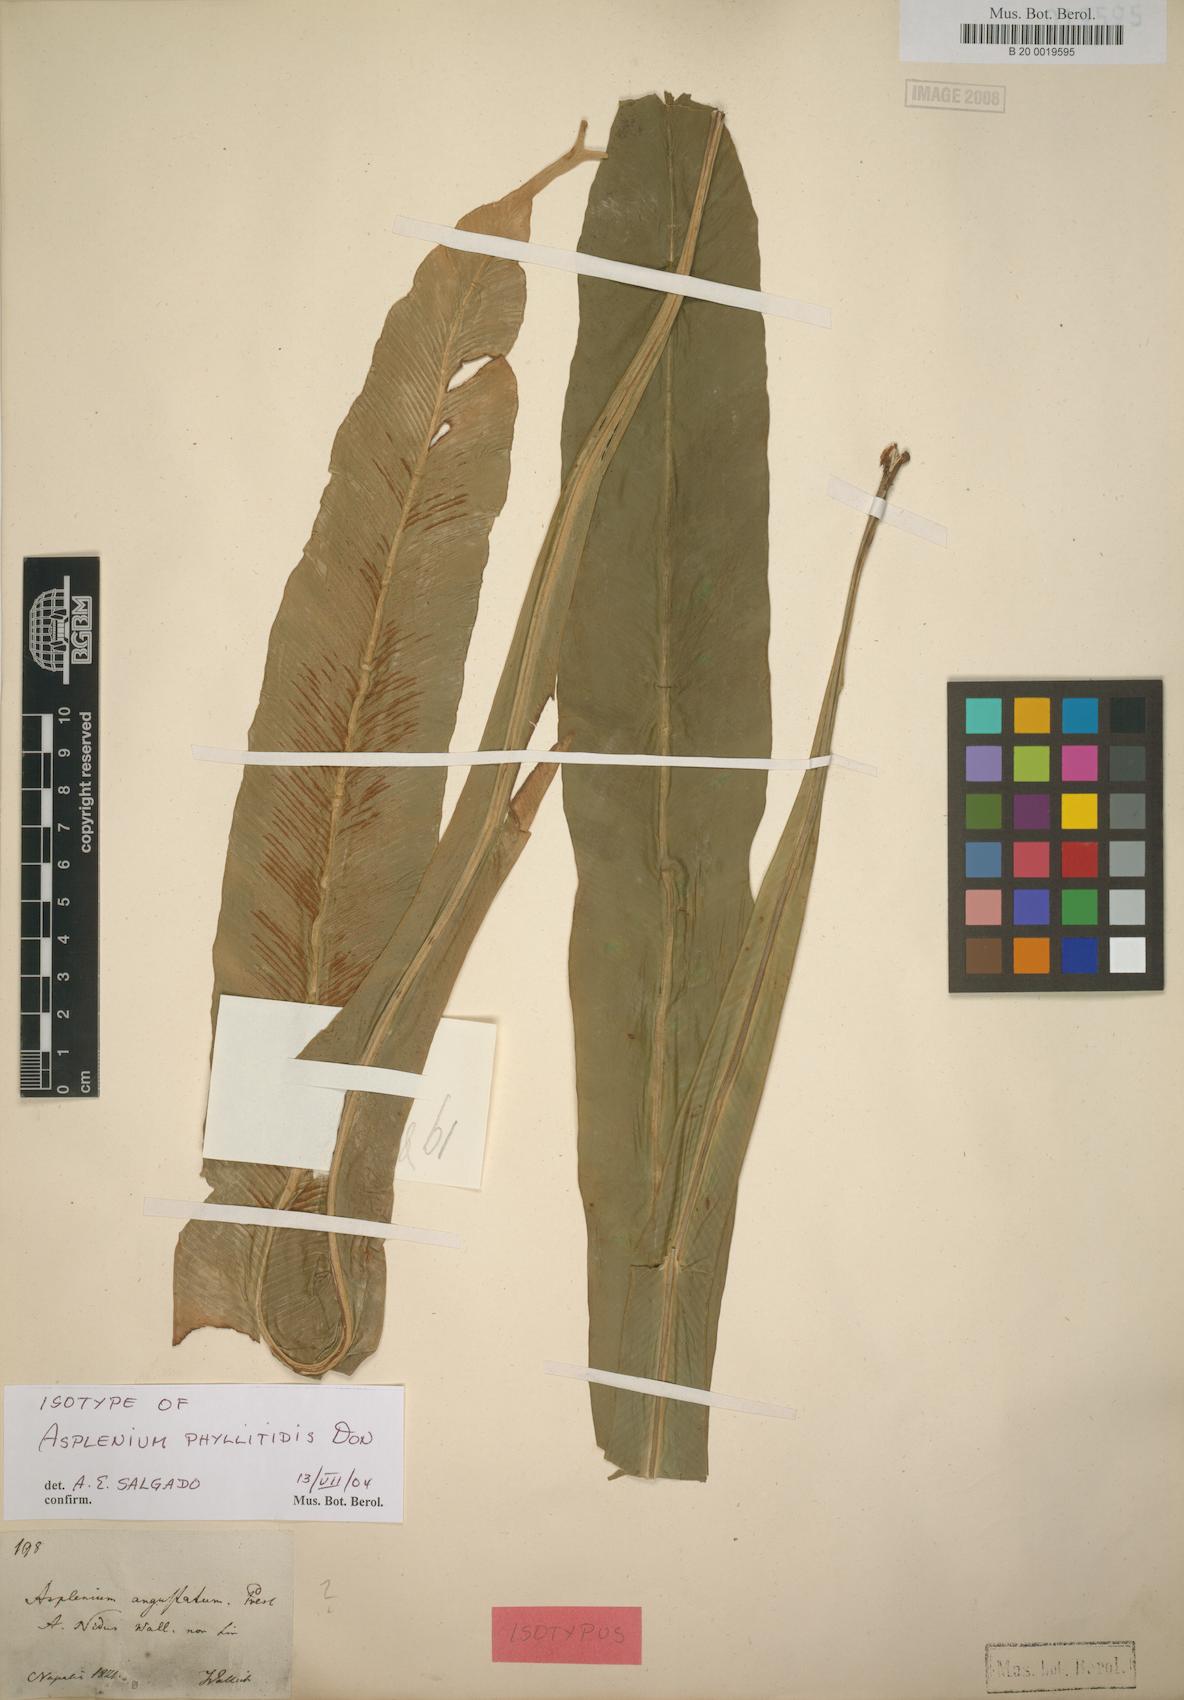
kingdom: Plantae
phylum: Tracheophyta
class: Polypodiopsida
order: Polypodiales
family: Aspleniaceae
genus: Asplenium
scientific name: Asplenium phyllitidis
